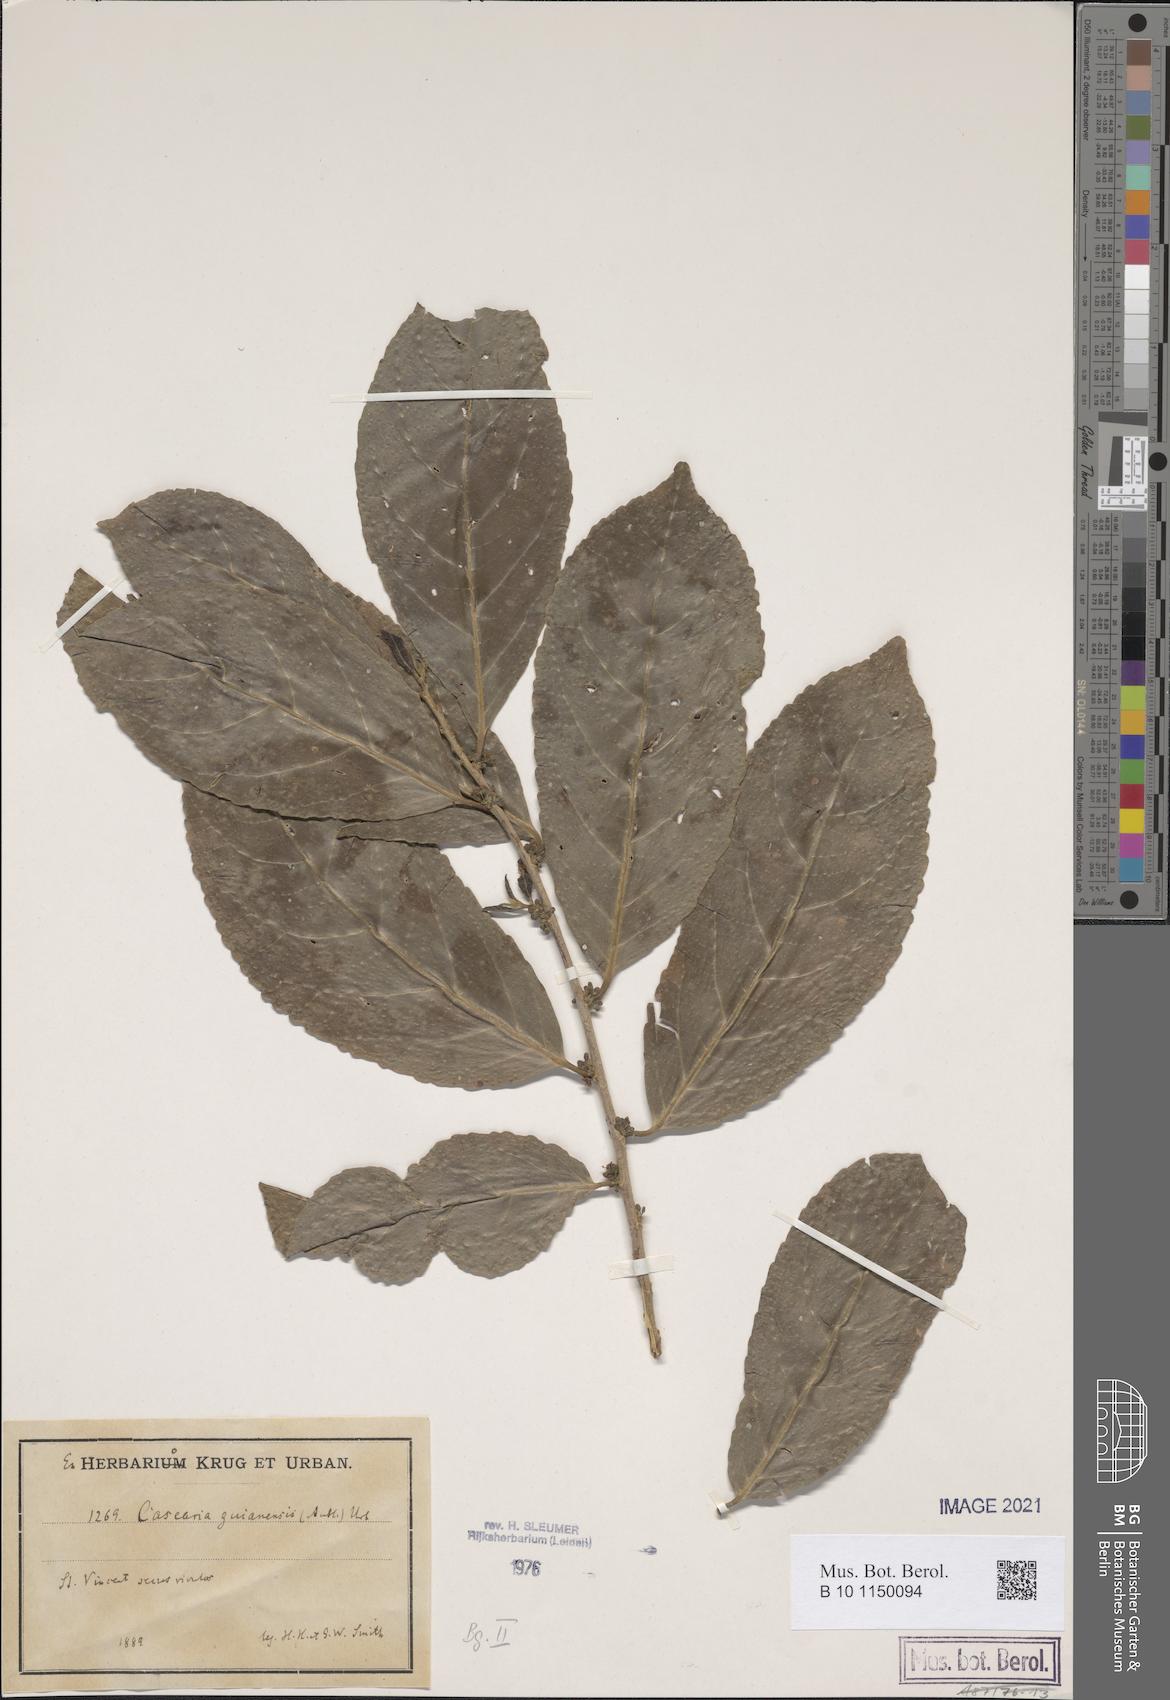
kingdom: Plantae
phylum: Tracheophyta
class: Magnoliopsida
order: Malpighiales
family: Salicaceae
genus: Casearia
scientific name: Casearia guianensis
